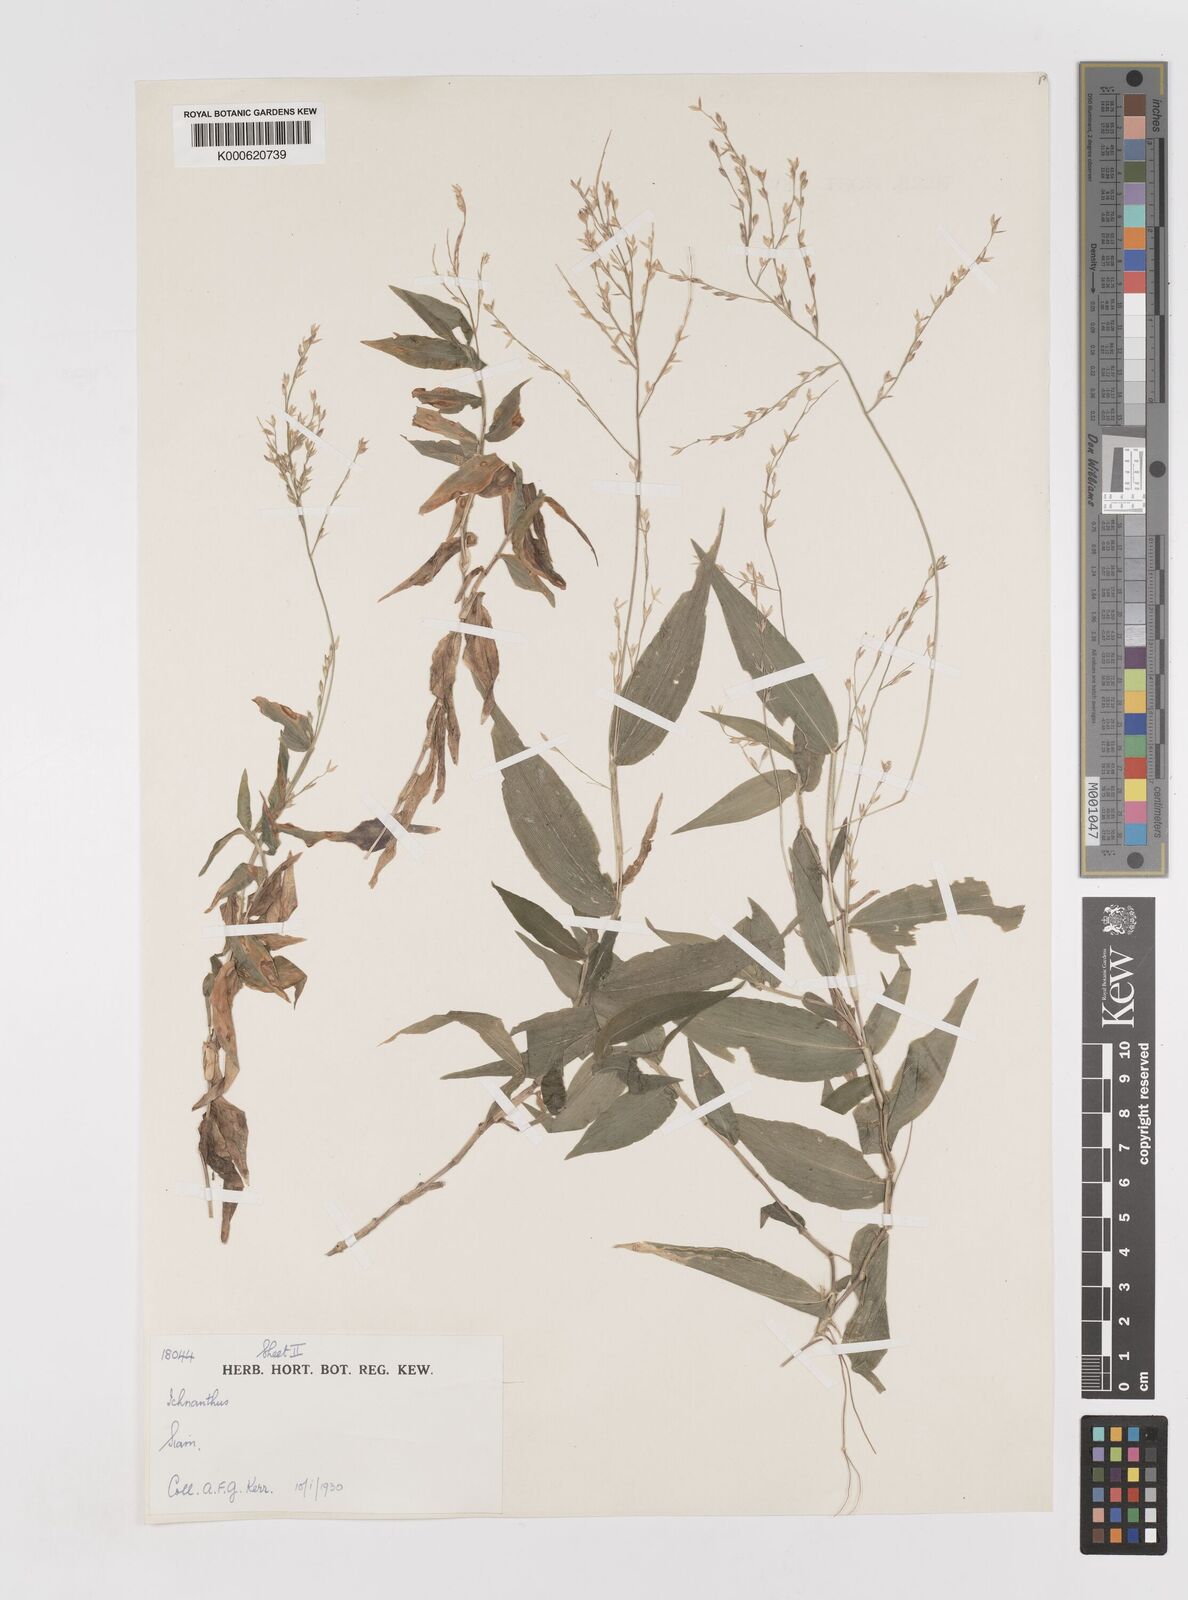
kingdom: Plantae
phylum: Tracheophyta
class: Liliopsida
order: Poales
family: Poaceae
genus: Ichnanthus
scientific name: Ichnanthus
